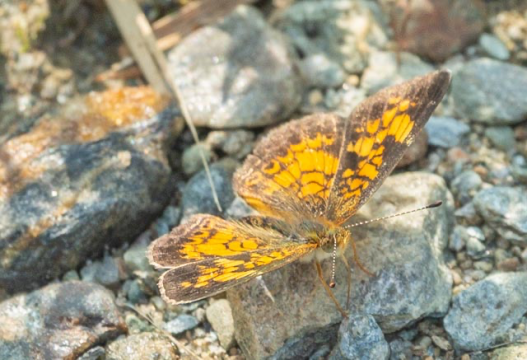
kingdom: Animalia
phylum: Arthropoda
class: Insecta
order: Lepidoptera
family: Nymphalidae
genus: Phyciodes
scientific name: Phyciodes tharos
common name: Northern Crescent
